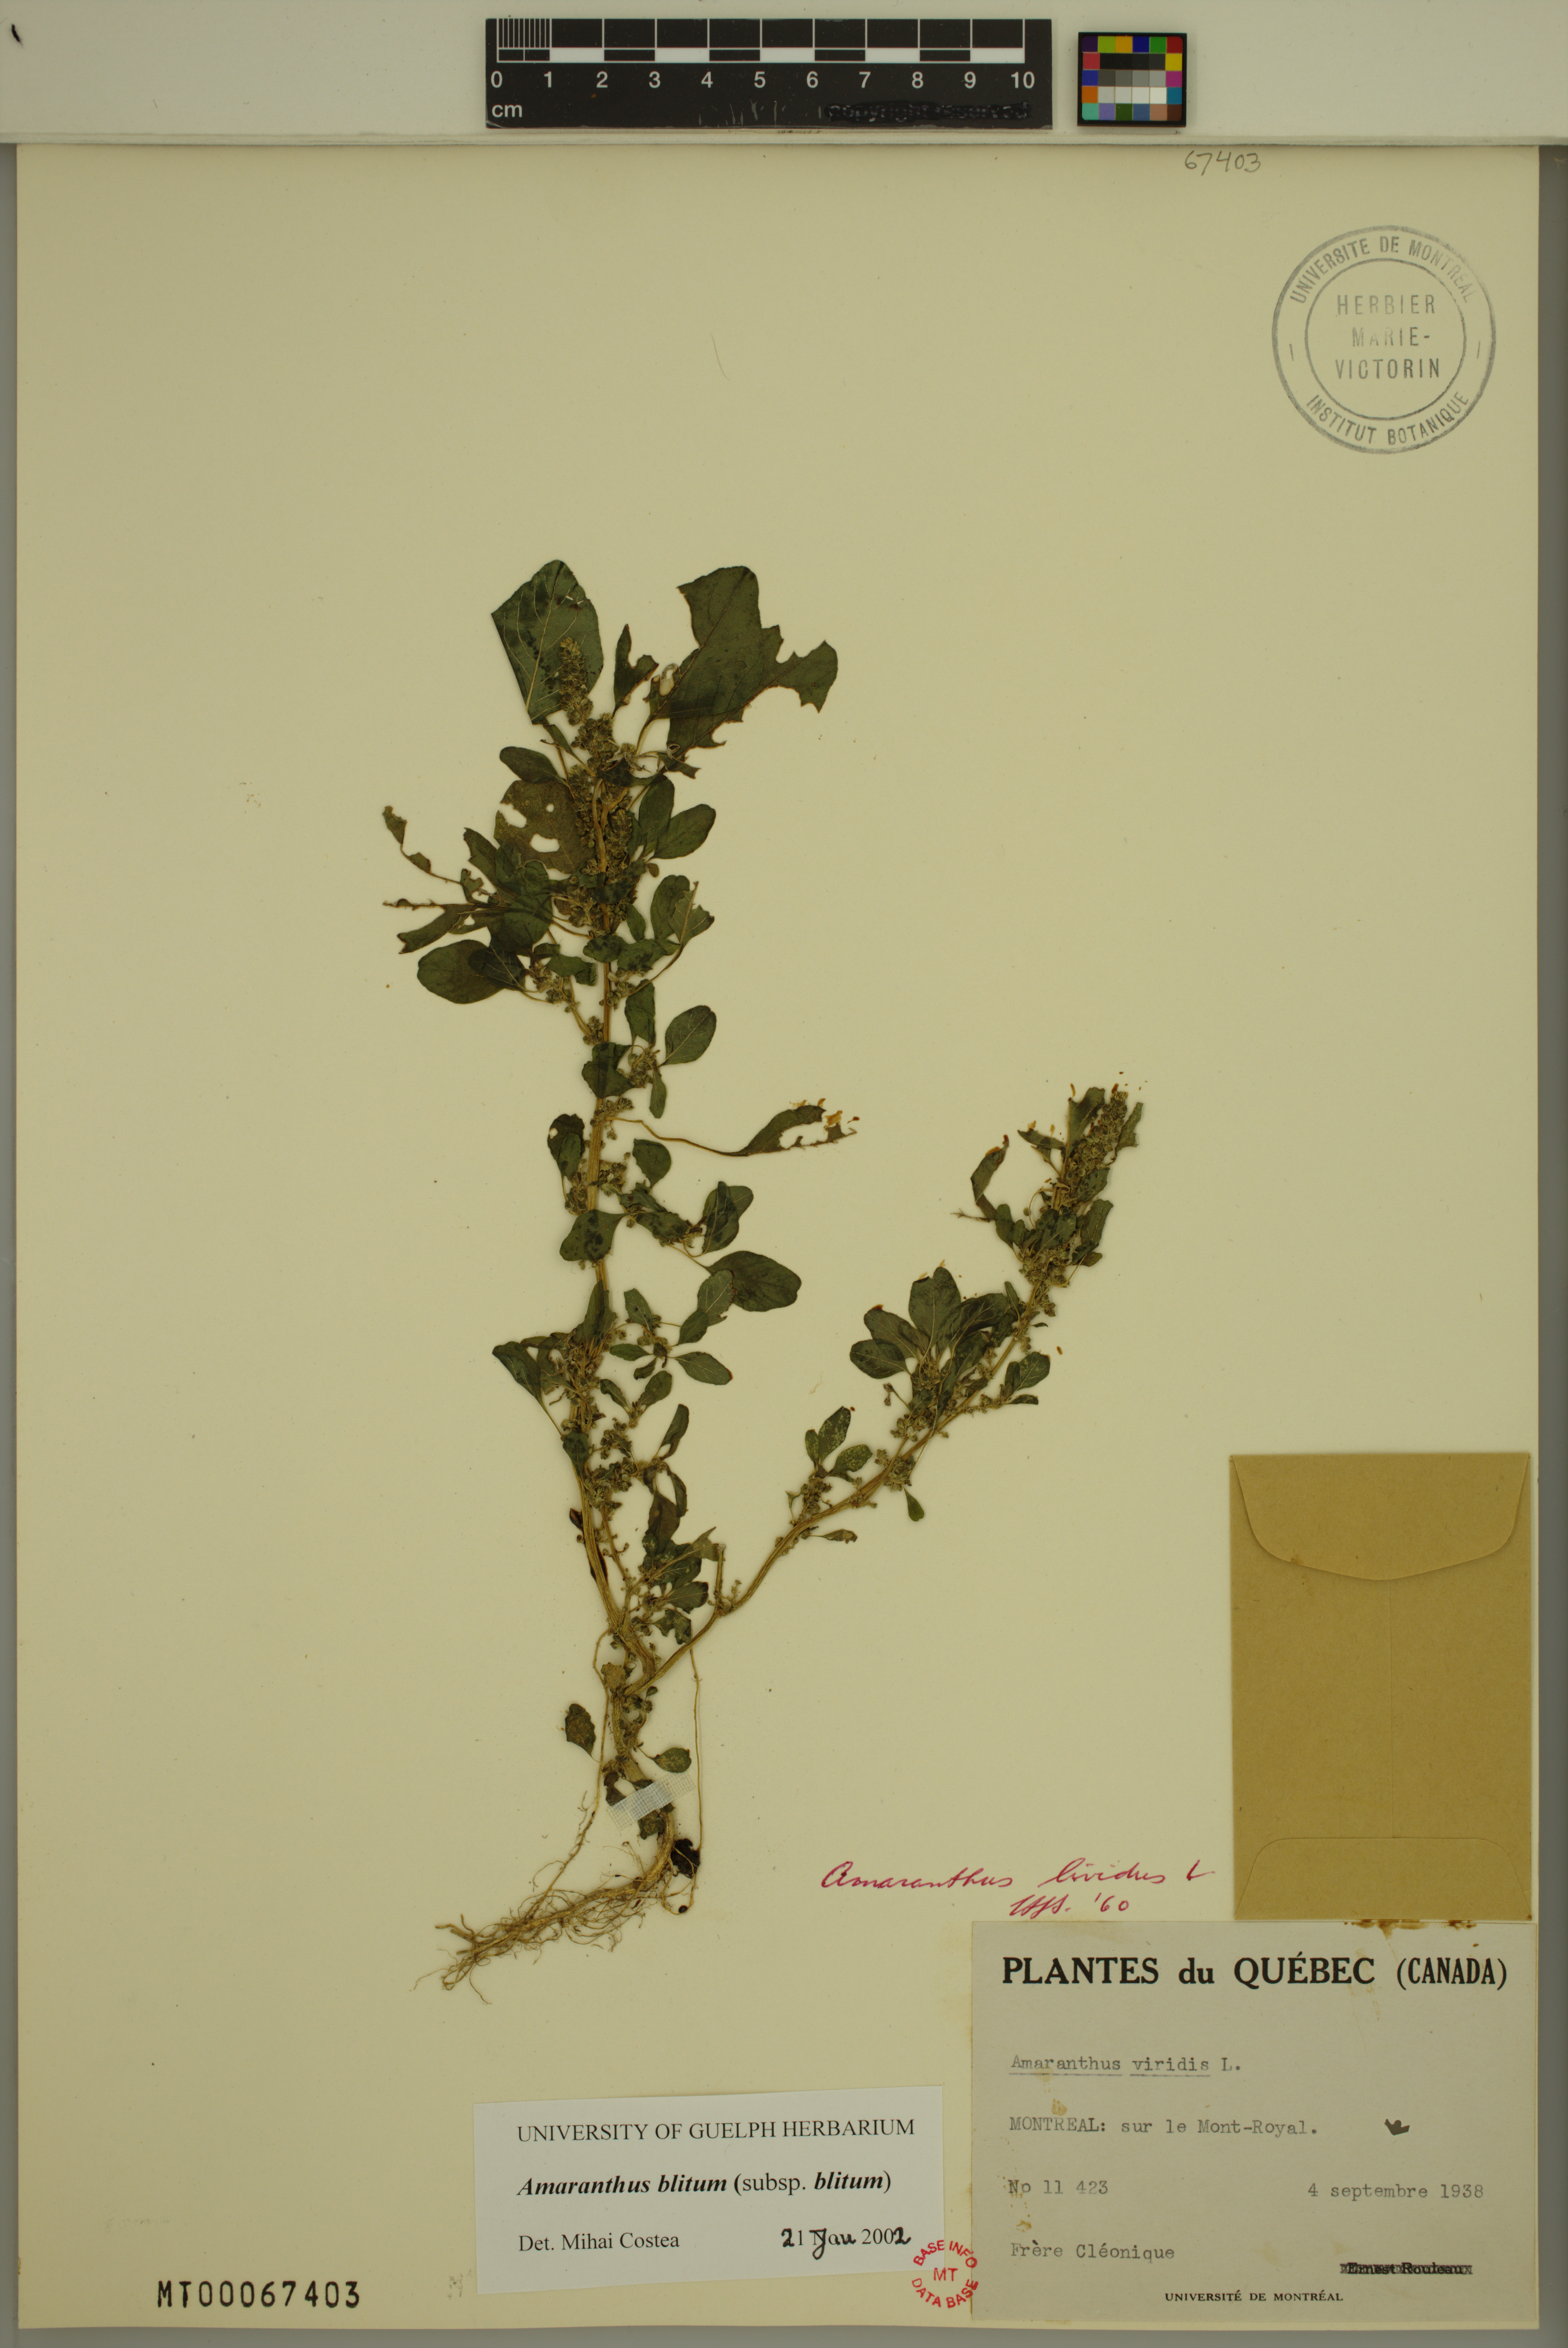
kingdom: Plantae
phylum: Tracheophyta
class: Magnoliopsida
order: Caryophyllales
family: Amaranthaceae
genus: Amaranthus
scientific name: Amaranthus blitum
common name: Purple amaranth
